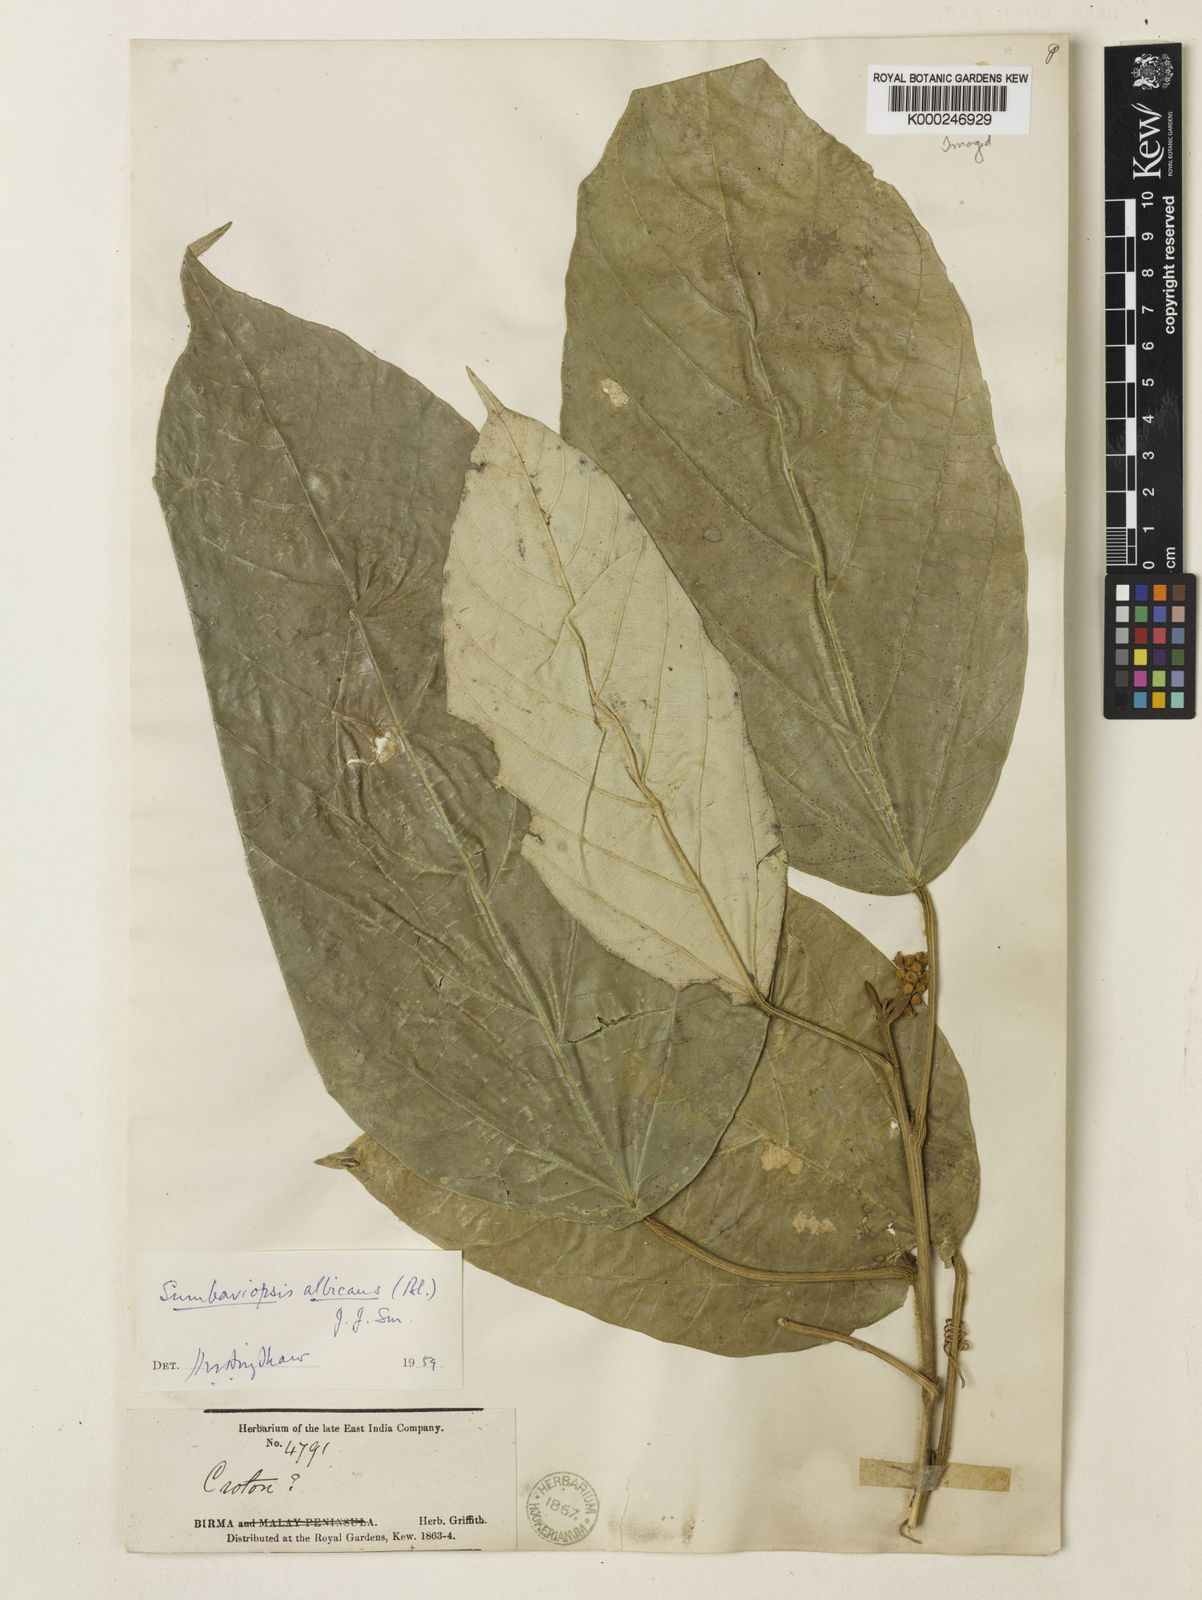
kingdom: Plantae
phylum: Tracheophyta
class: Magnoliopsida
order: Malpighiales
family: Euphorbiaceae
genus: Sumbaviopsis
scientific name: Sumbaviopsis albicans
